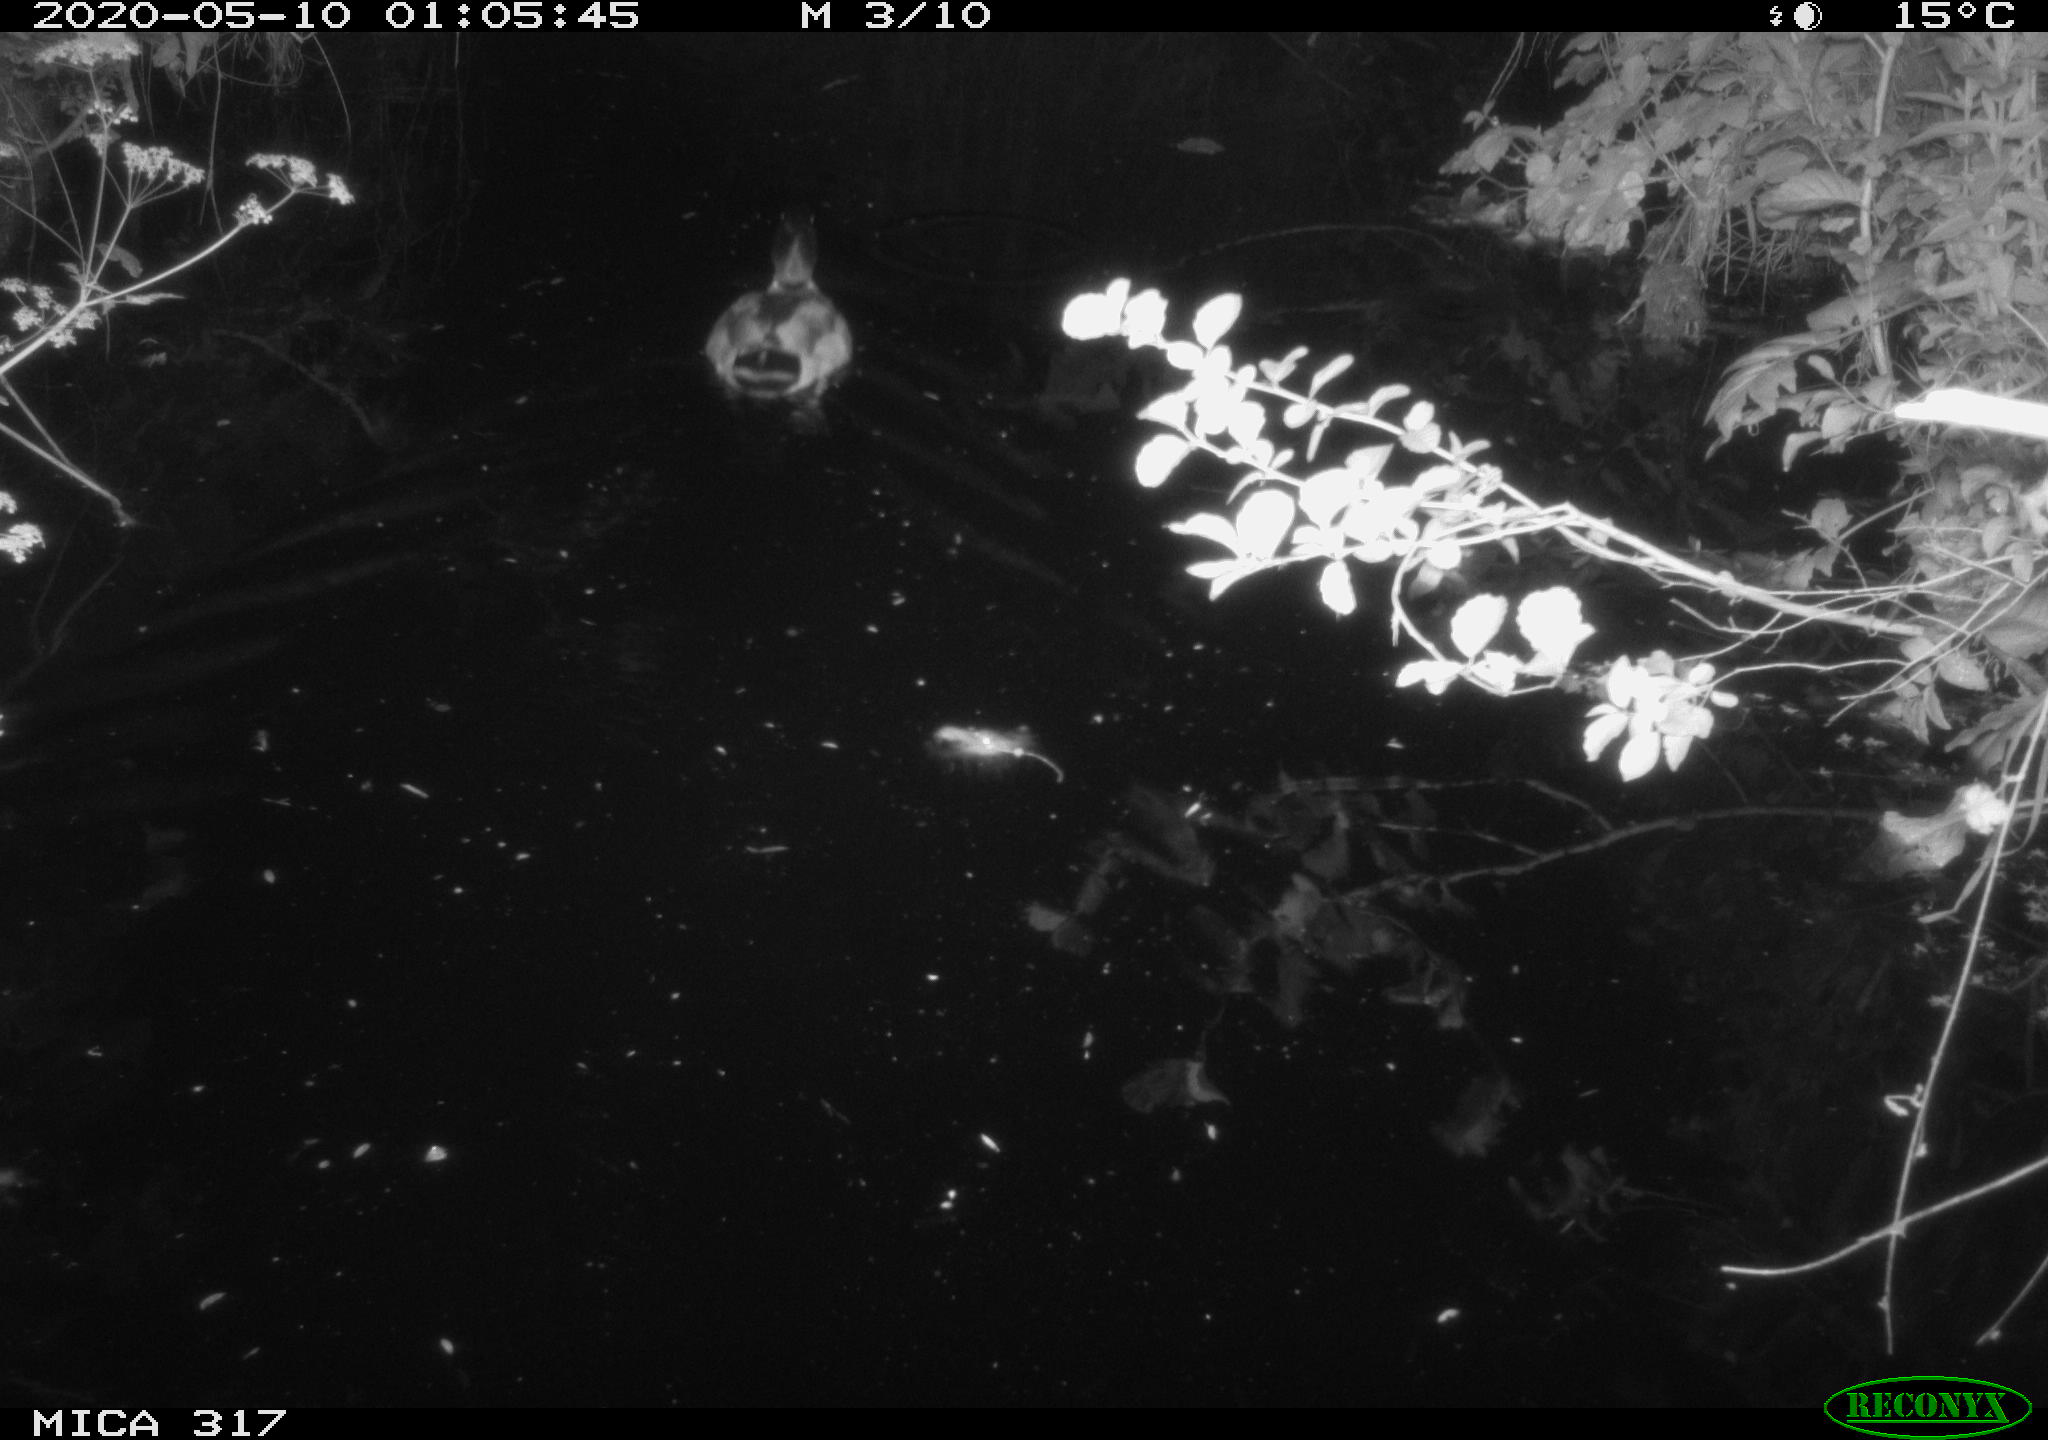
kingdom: Animalia
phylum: Chordata
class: Aves
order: Anseriformes
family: Anatidae
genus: Anas
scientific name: Anas platyrhynchos
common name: Mallard
